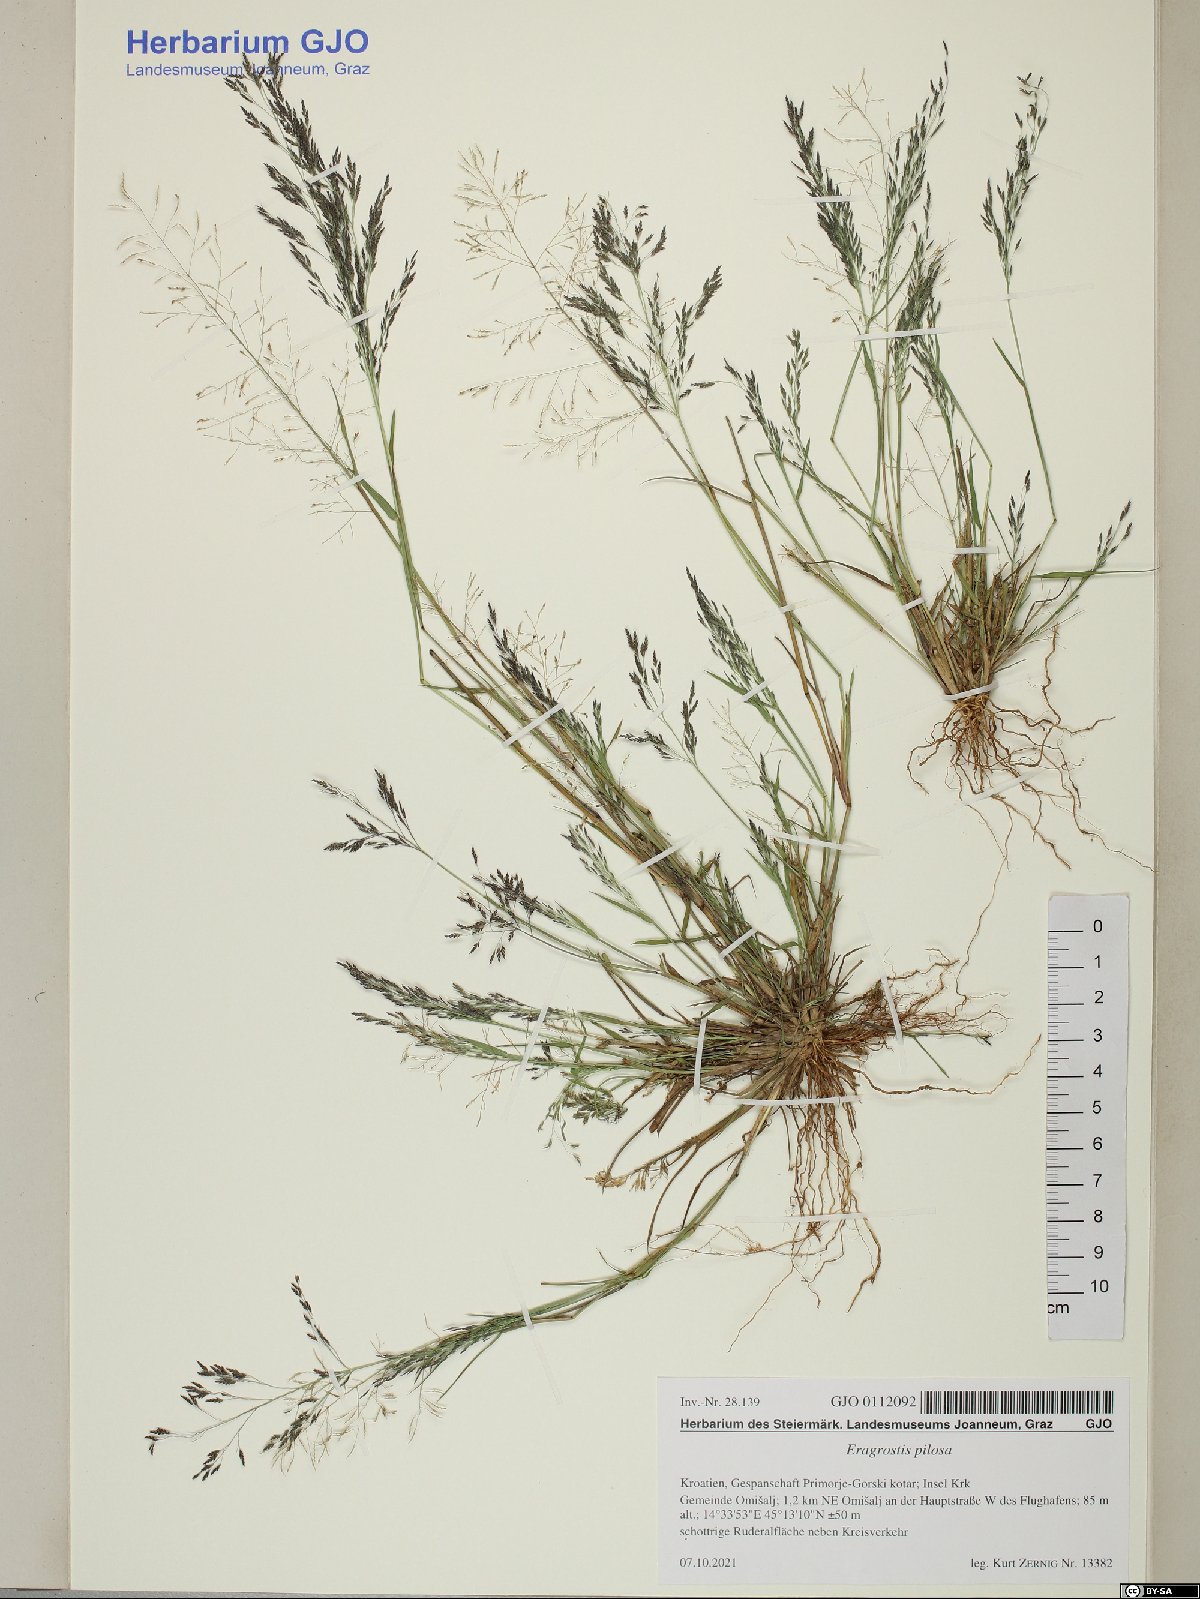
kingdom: Plantae
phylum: Tracheophyta
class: Liliopsida
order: Poales
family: Poaceae
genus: Eragrostis
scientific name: Eragrostis pilosa
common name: Indian lovegrass
